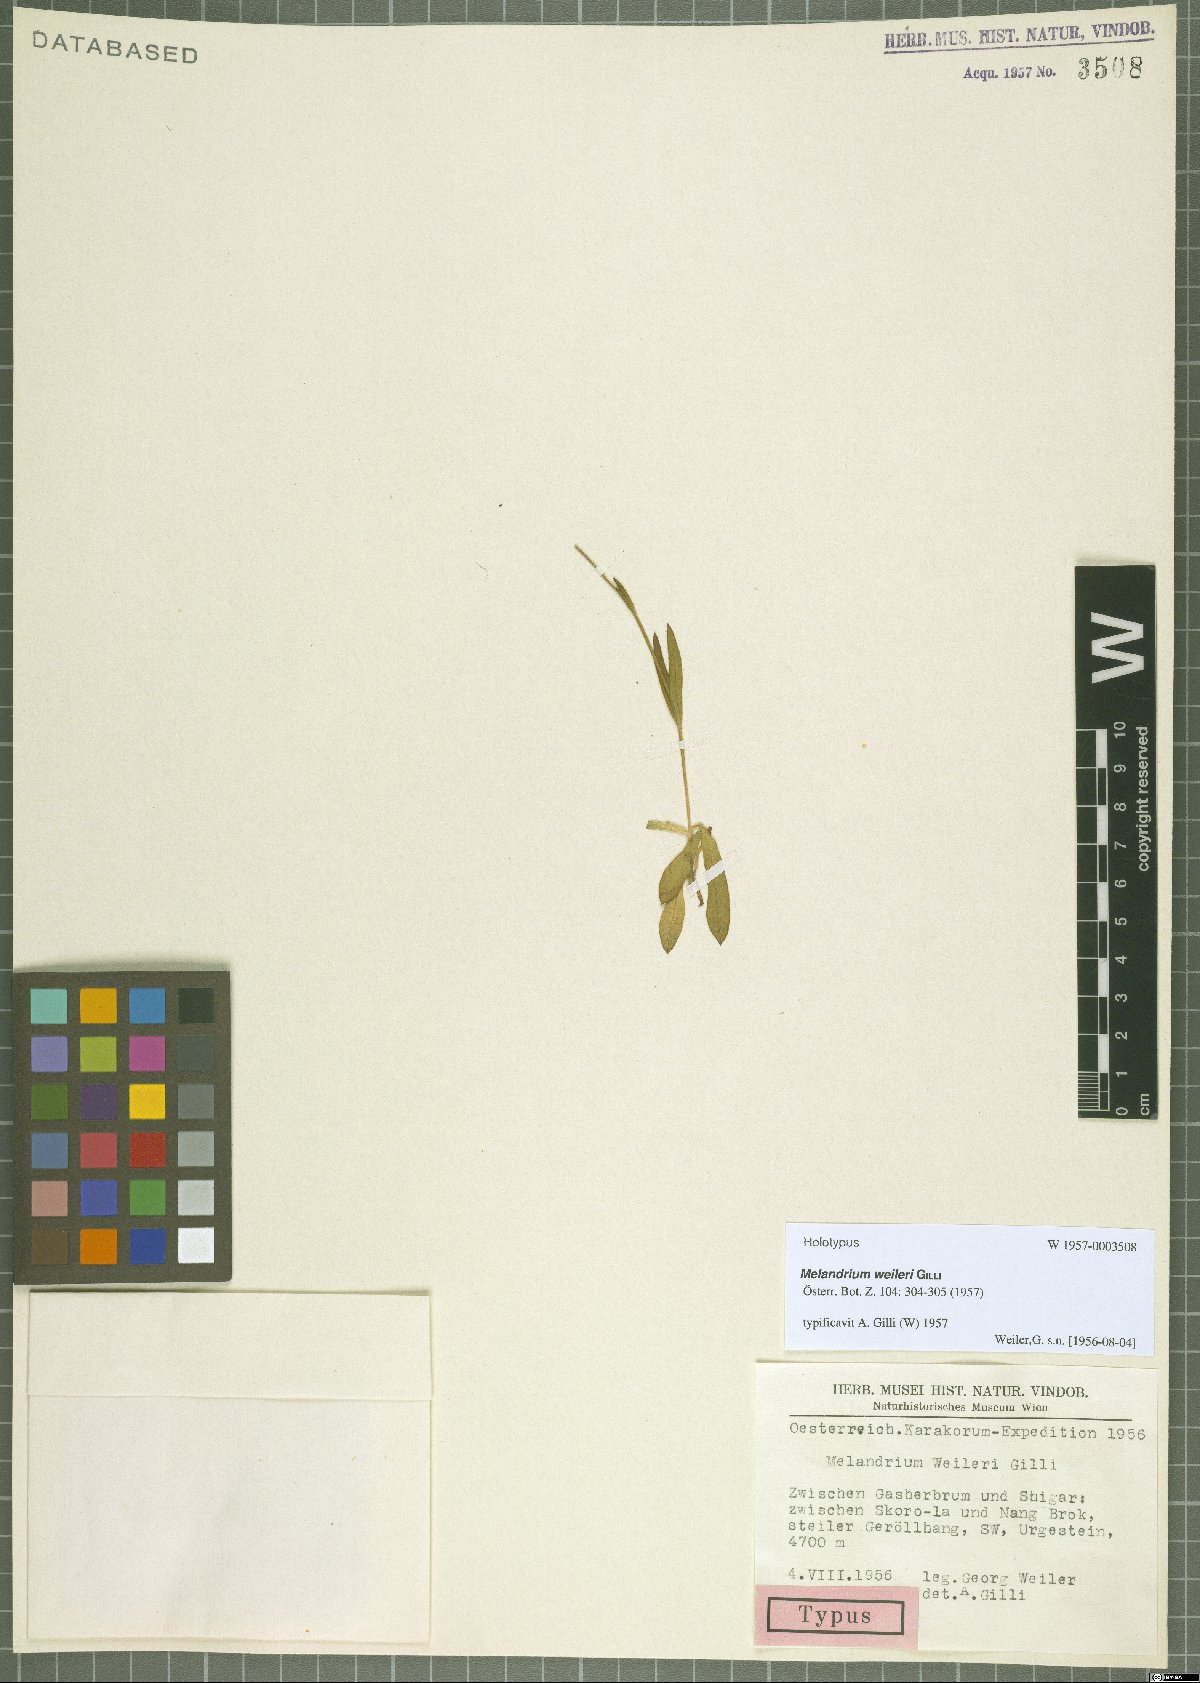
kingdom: Plantae
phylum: Tracheophyta
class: Magnoliopsida
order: Caryophyllales
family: Caryophyllaceae
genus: Silene
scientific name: Silene Melandrium weilleri
